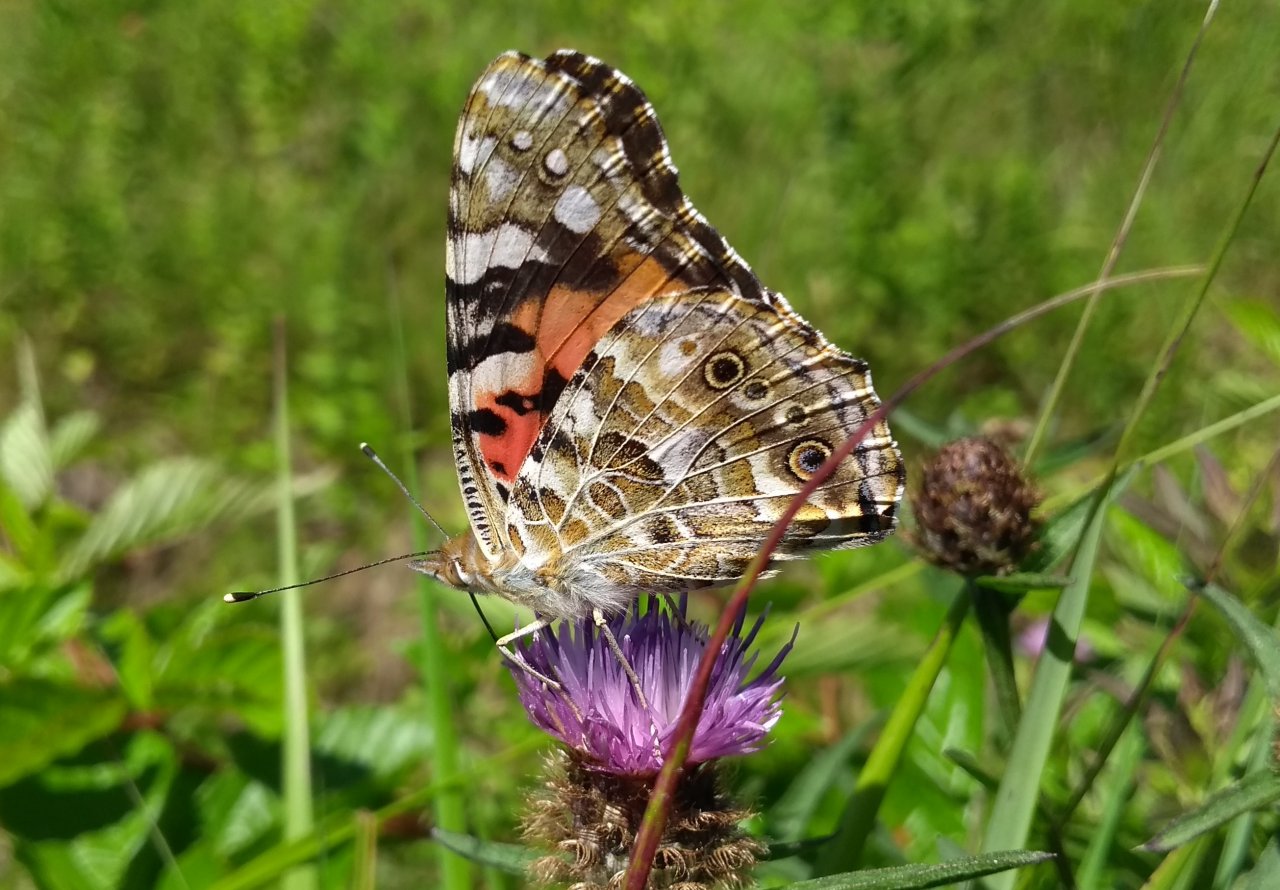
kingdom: Animalia
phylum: Arthropoda
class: Insecta
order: Lepidoptera
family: Nymphalidae
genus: Vanessa
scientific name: Vanessa cardui
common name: Painted Lady
